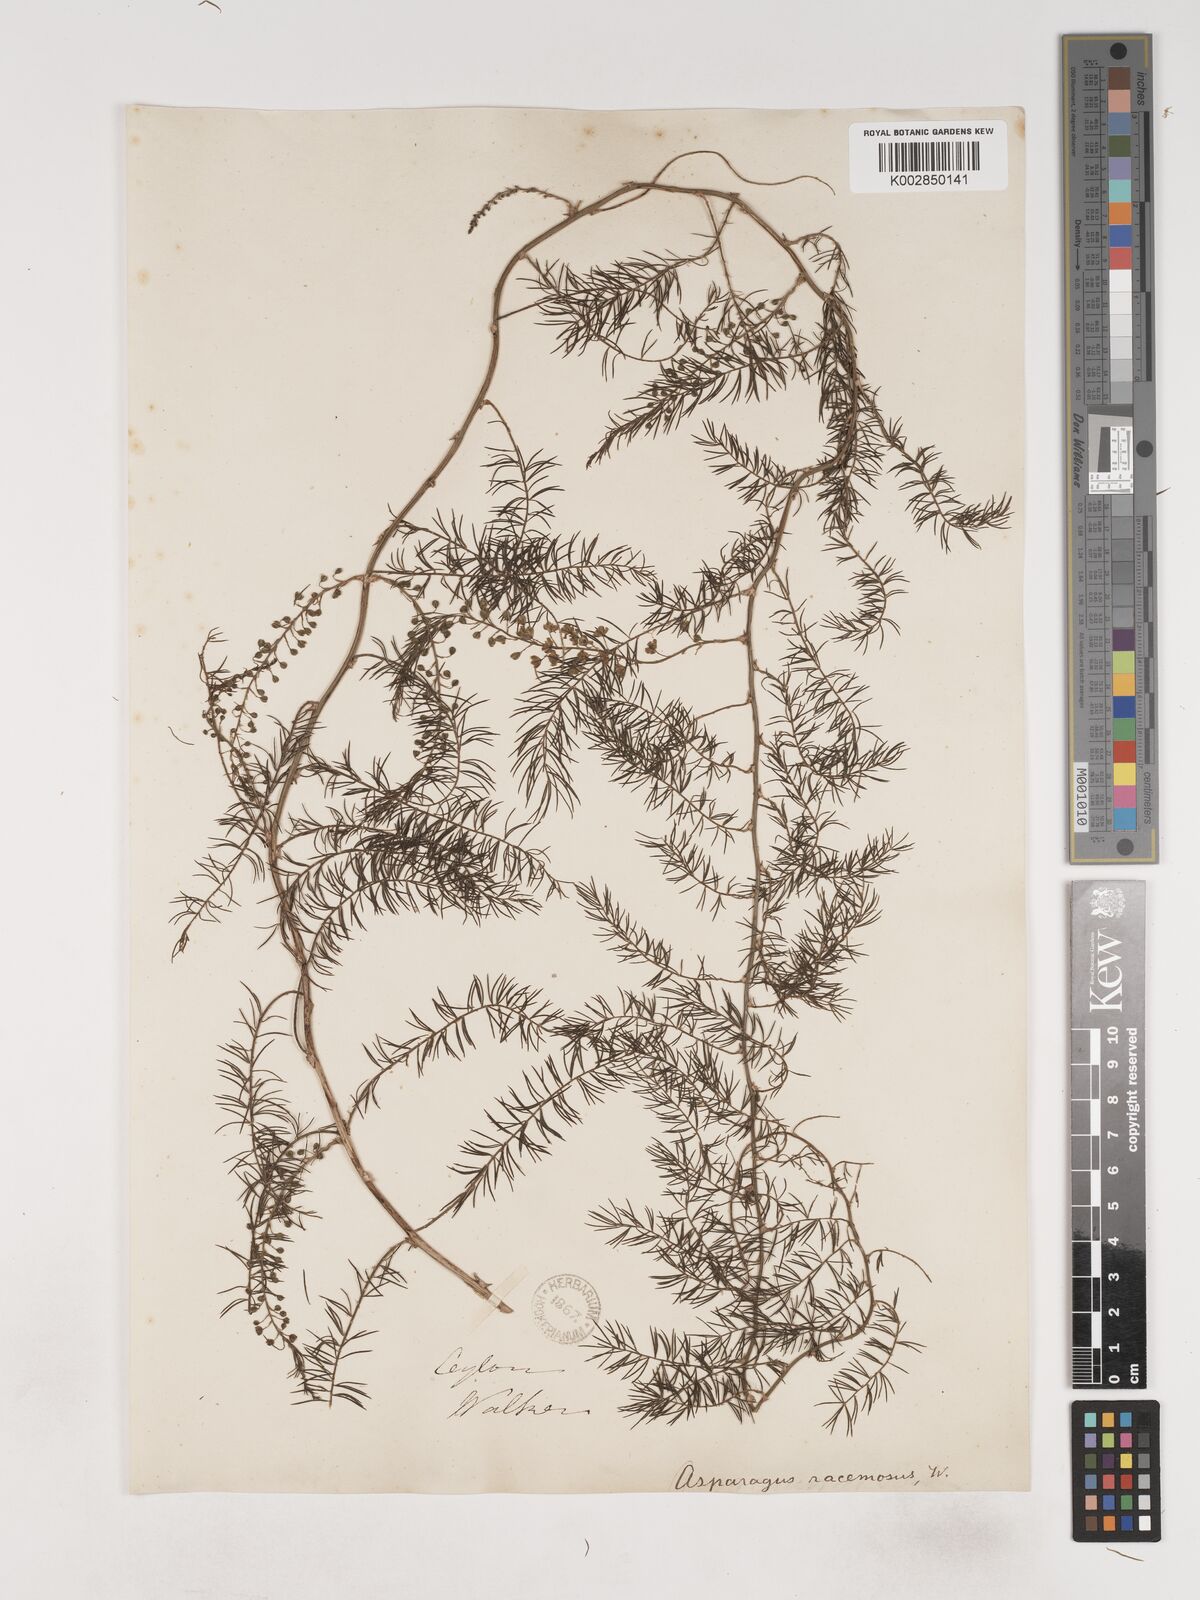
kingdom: Plantae
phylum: Tracheophyta
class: Liliopsida
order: Asparagales
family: Asparagaceae
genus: Asparagus
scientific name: Asparagus racemosus
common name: Asparagus-fern
